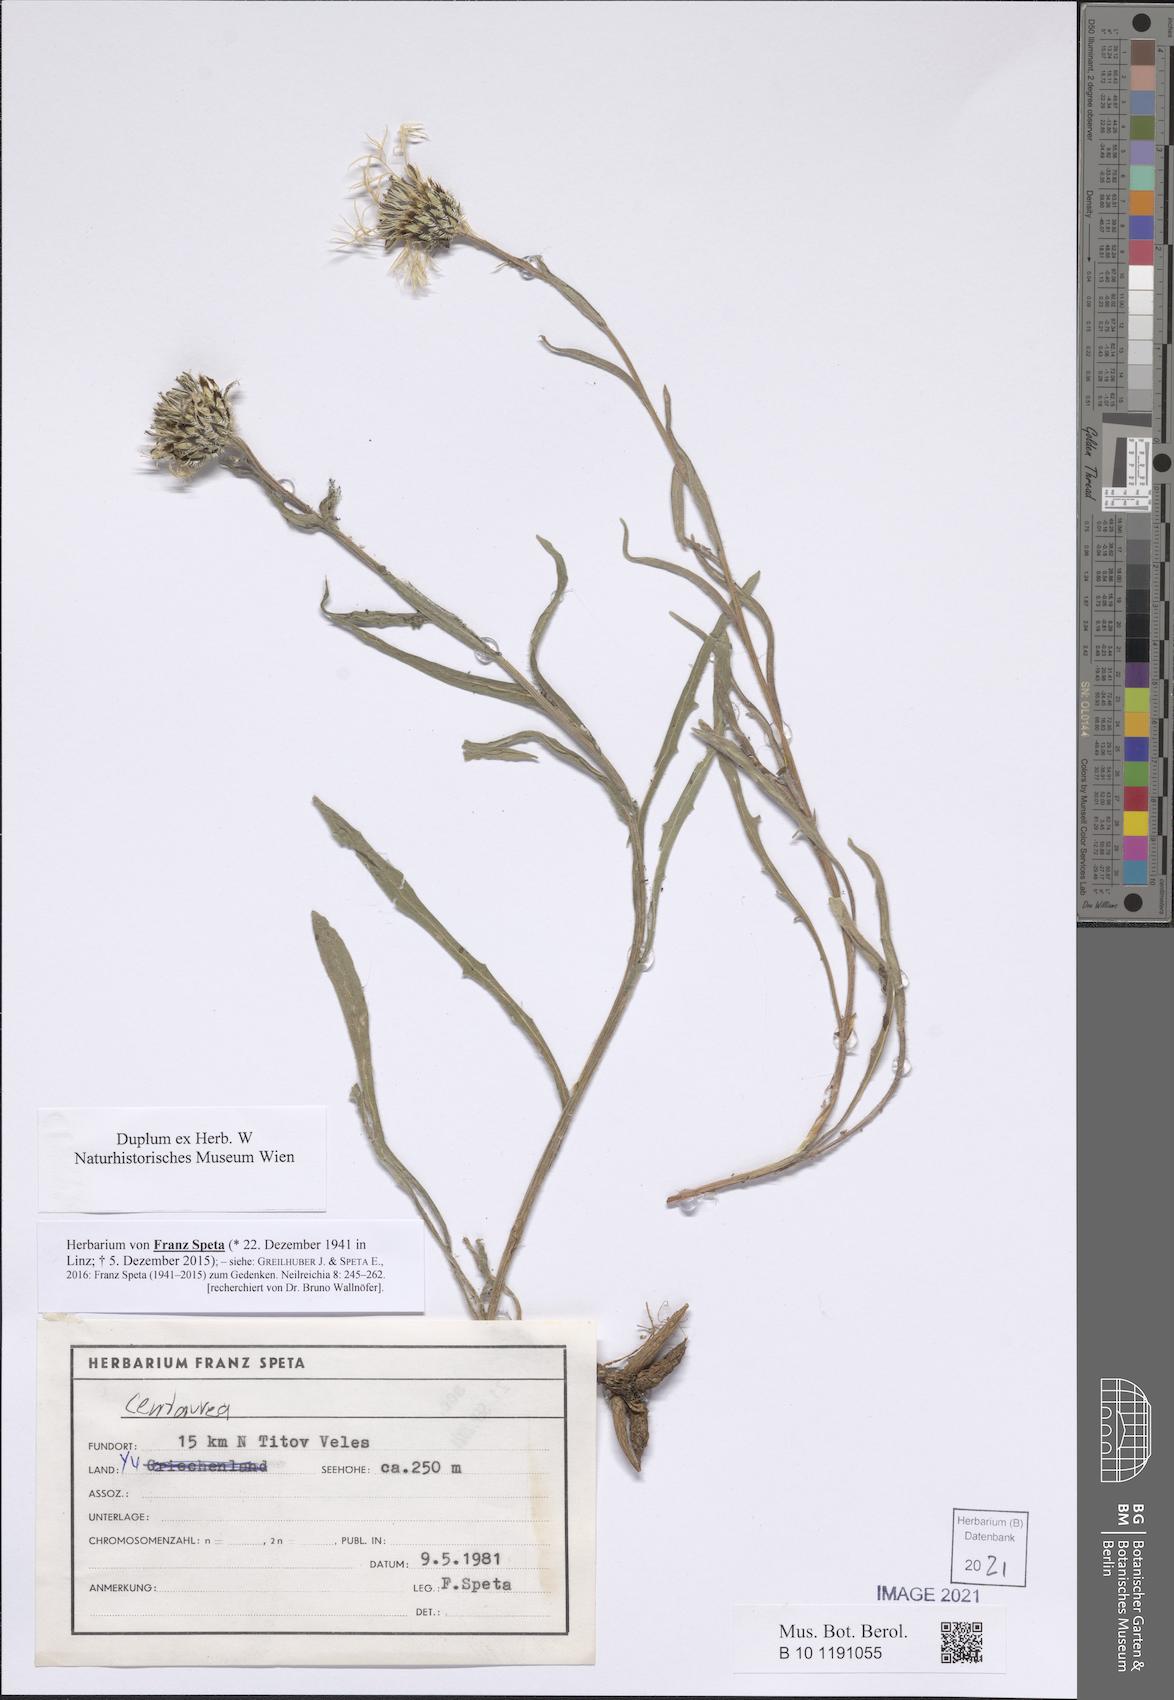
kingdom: Plantae
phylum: Tracheophyta
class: Magnoliopsida
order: Asterales
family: Asteraceae
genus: Centaurea
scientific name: Centaurea
